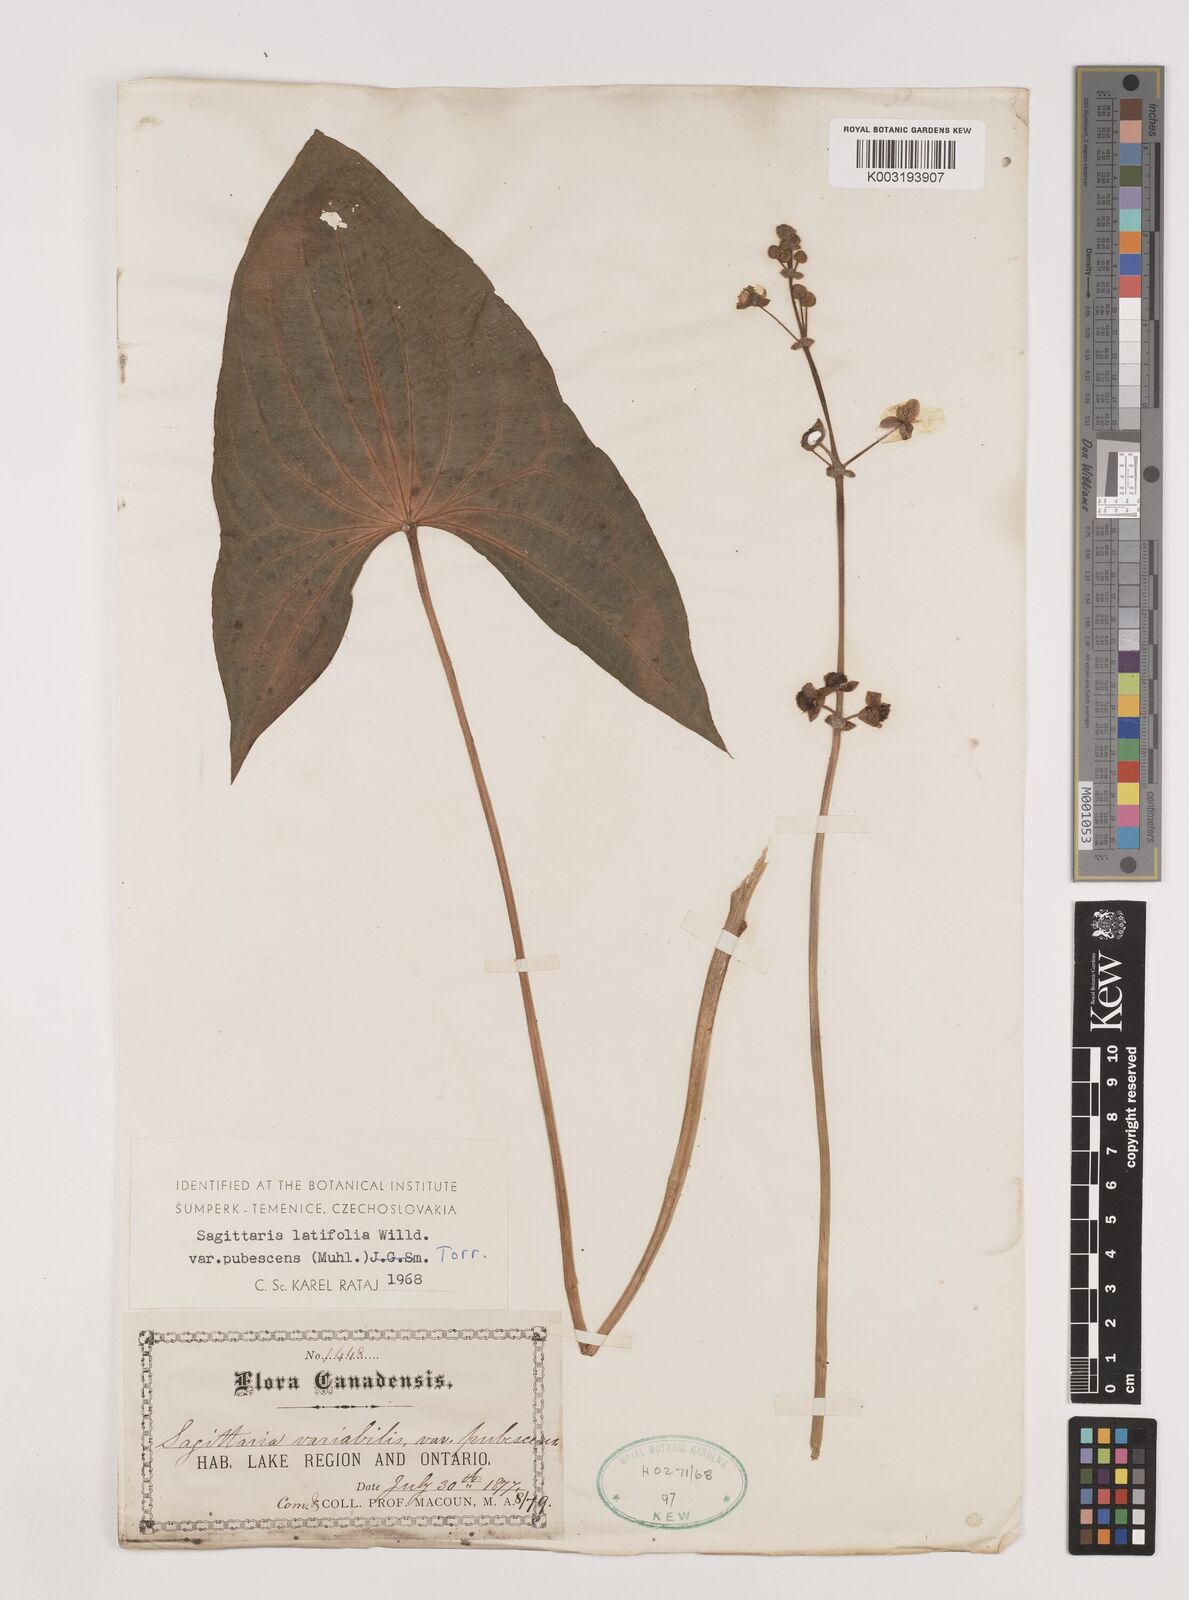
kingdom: Plantae
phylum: Tracheophyta
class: Liliopsida
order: Alismatales
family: Alismataceae
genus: Sagittaria
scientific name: Sagittaria latifolia
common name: Duck-potato
